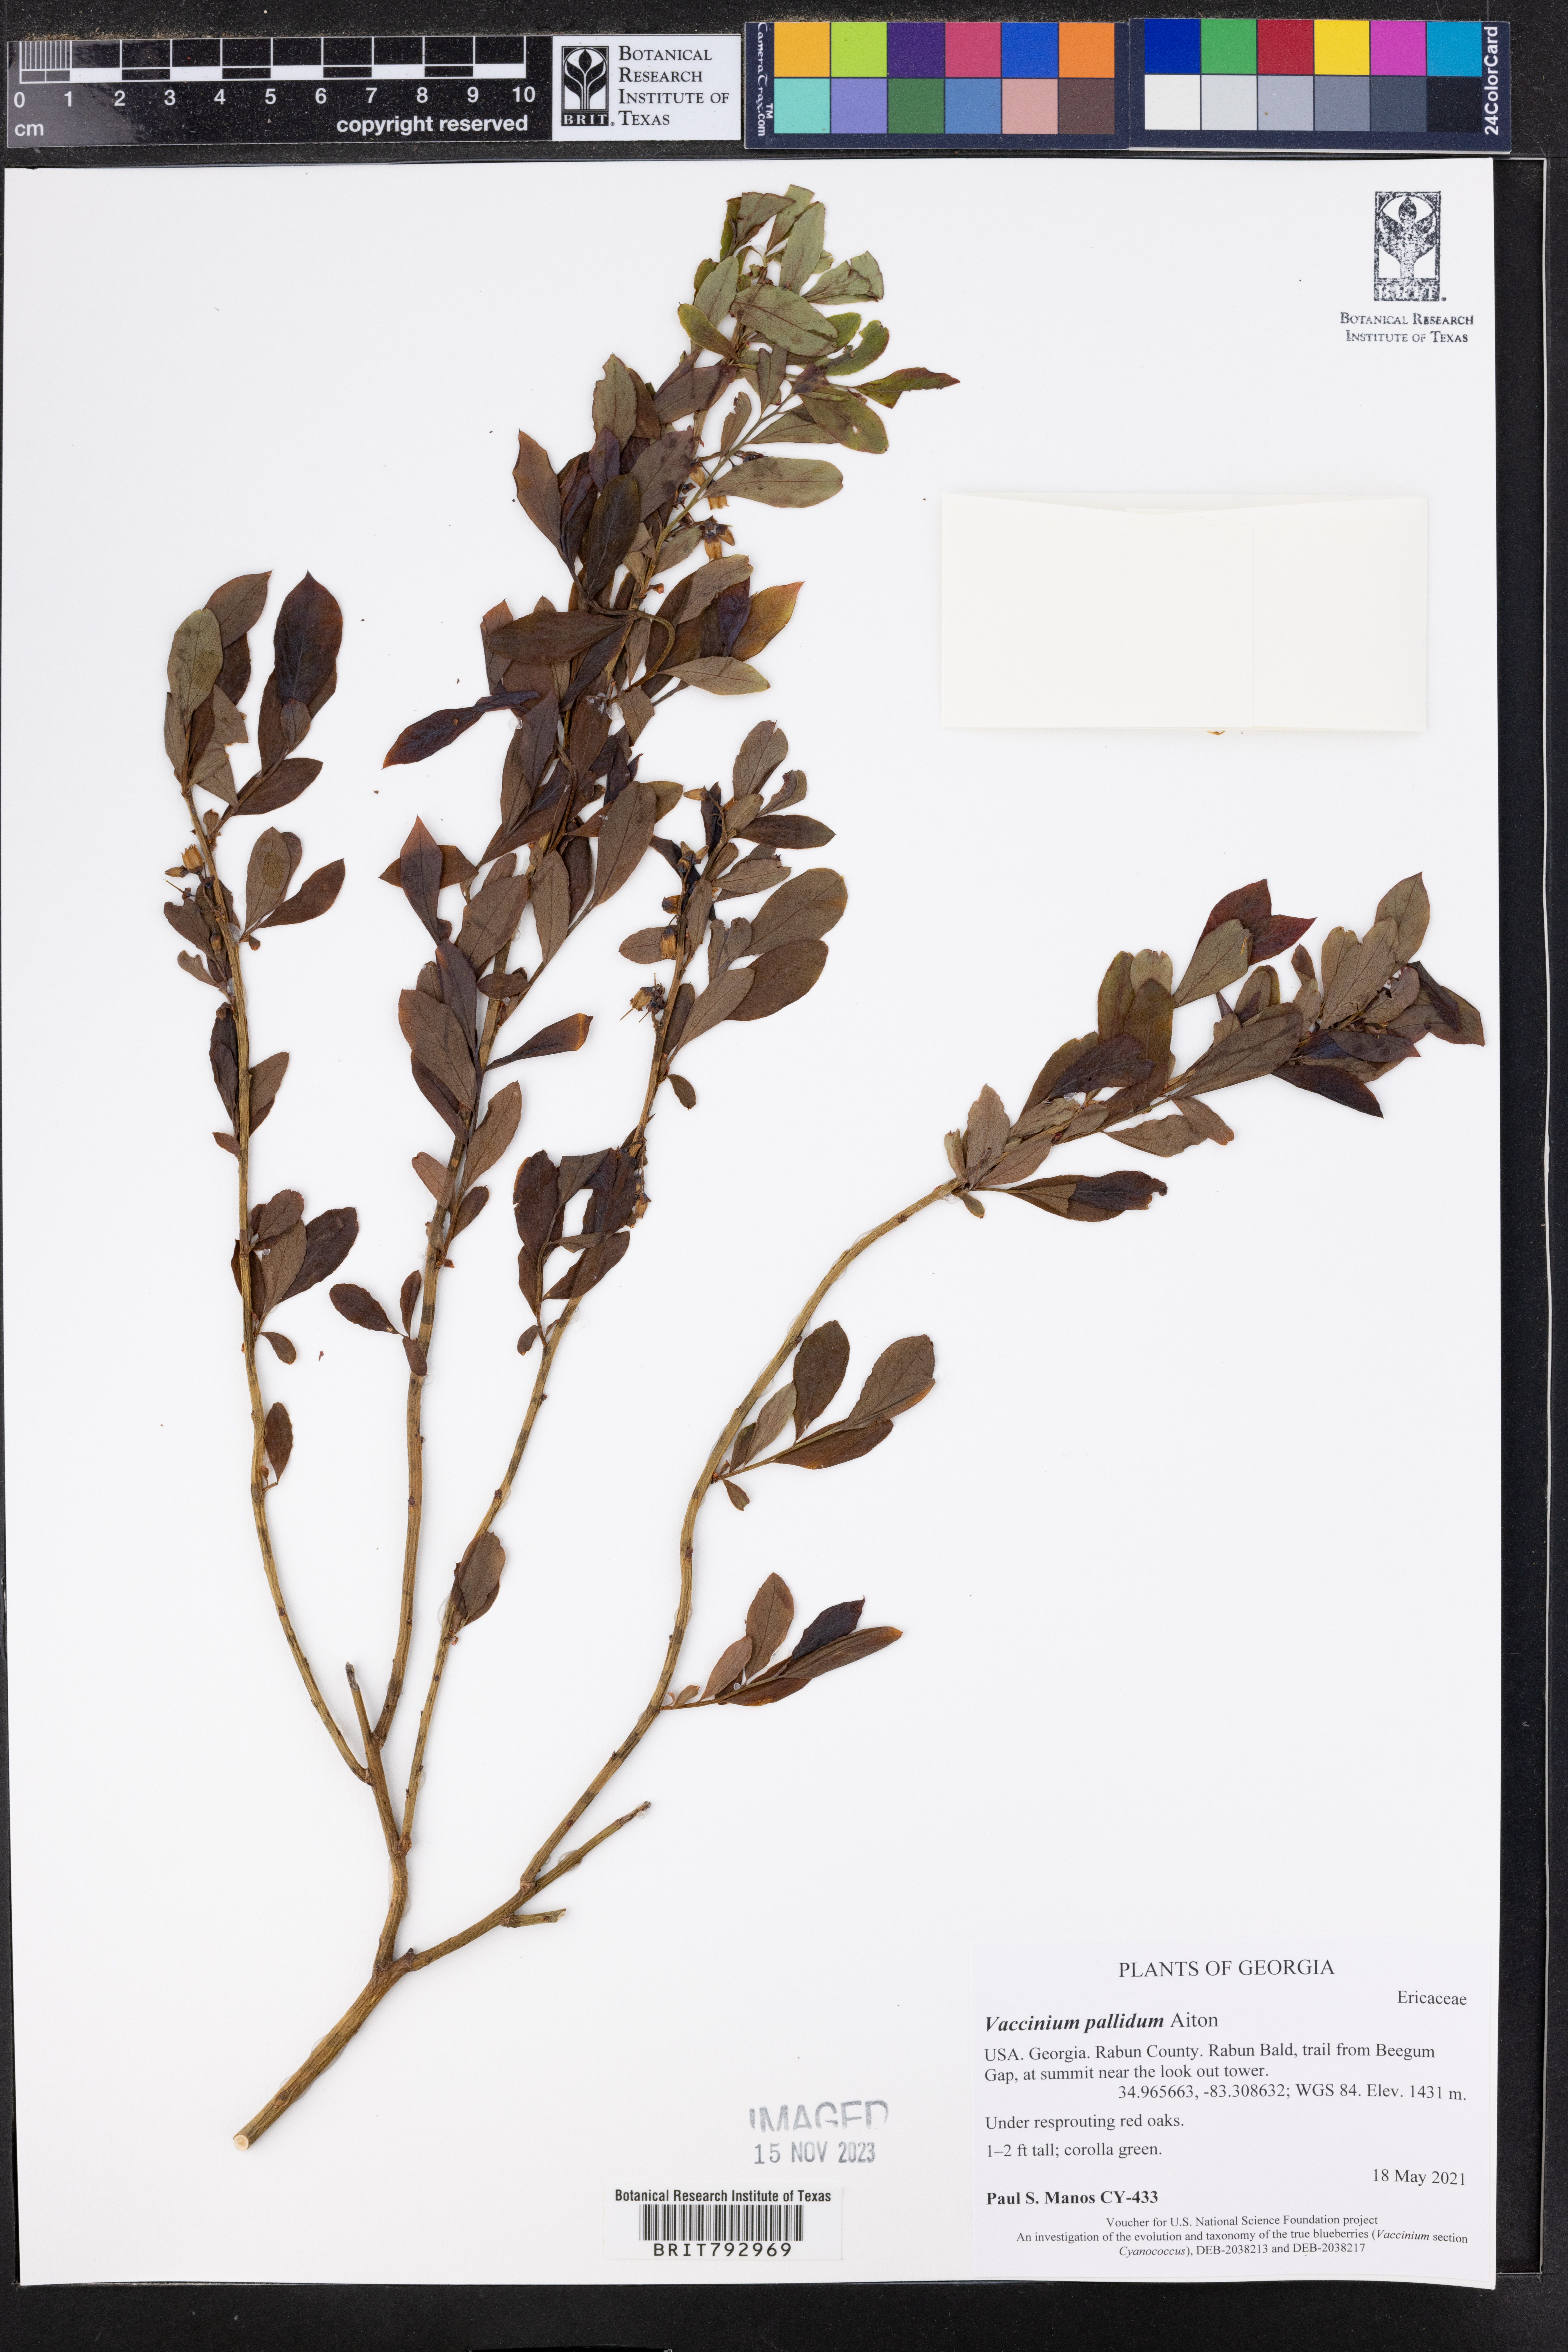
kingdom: Plantae
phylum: Tracheophyta
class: Magnoliopsida
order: Ericales
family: Ericaceae
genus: Vaccinium
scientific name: Vaccinium pallidum
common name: Blue ridge blueberry
